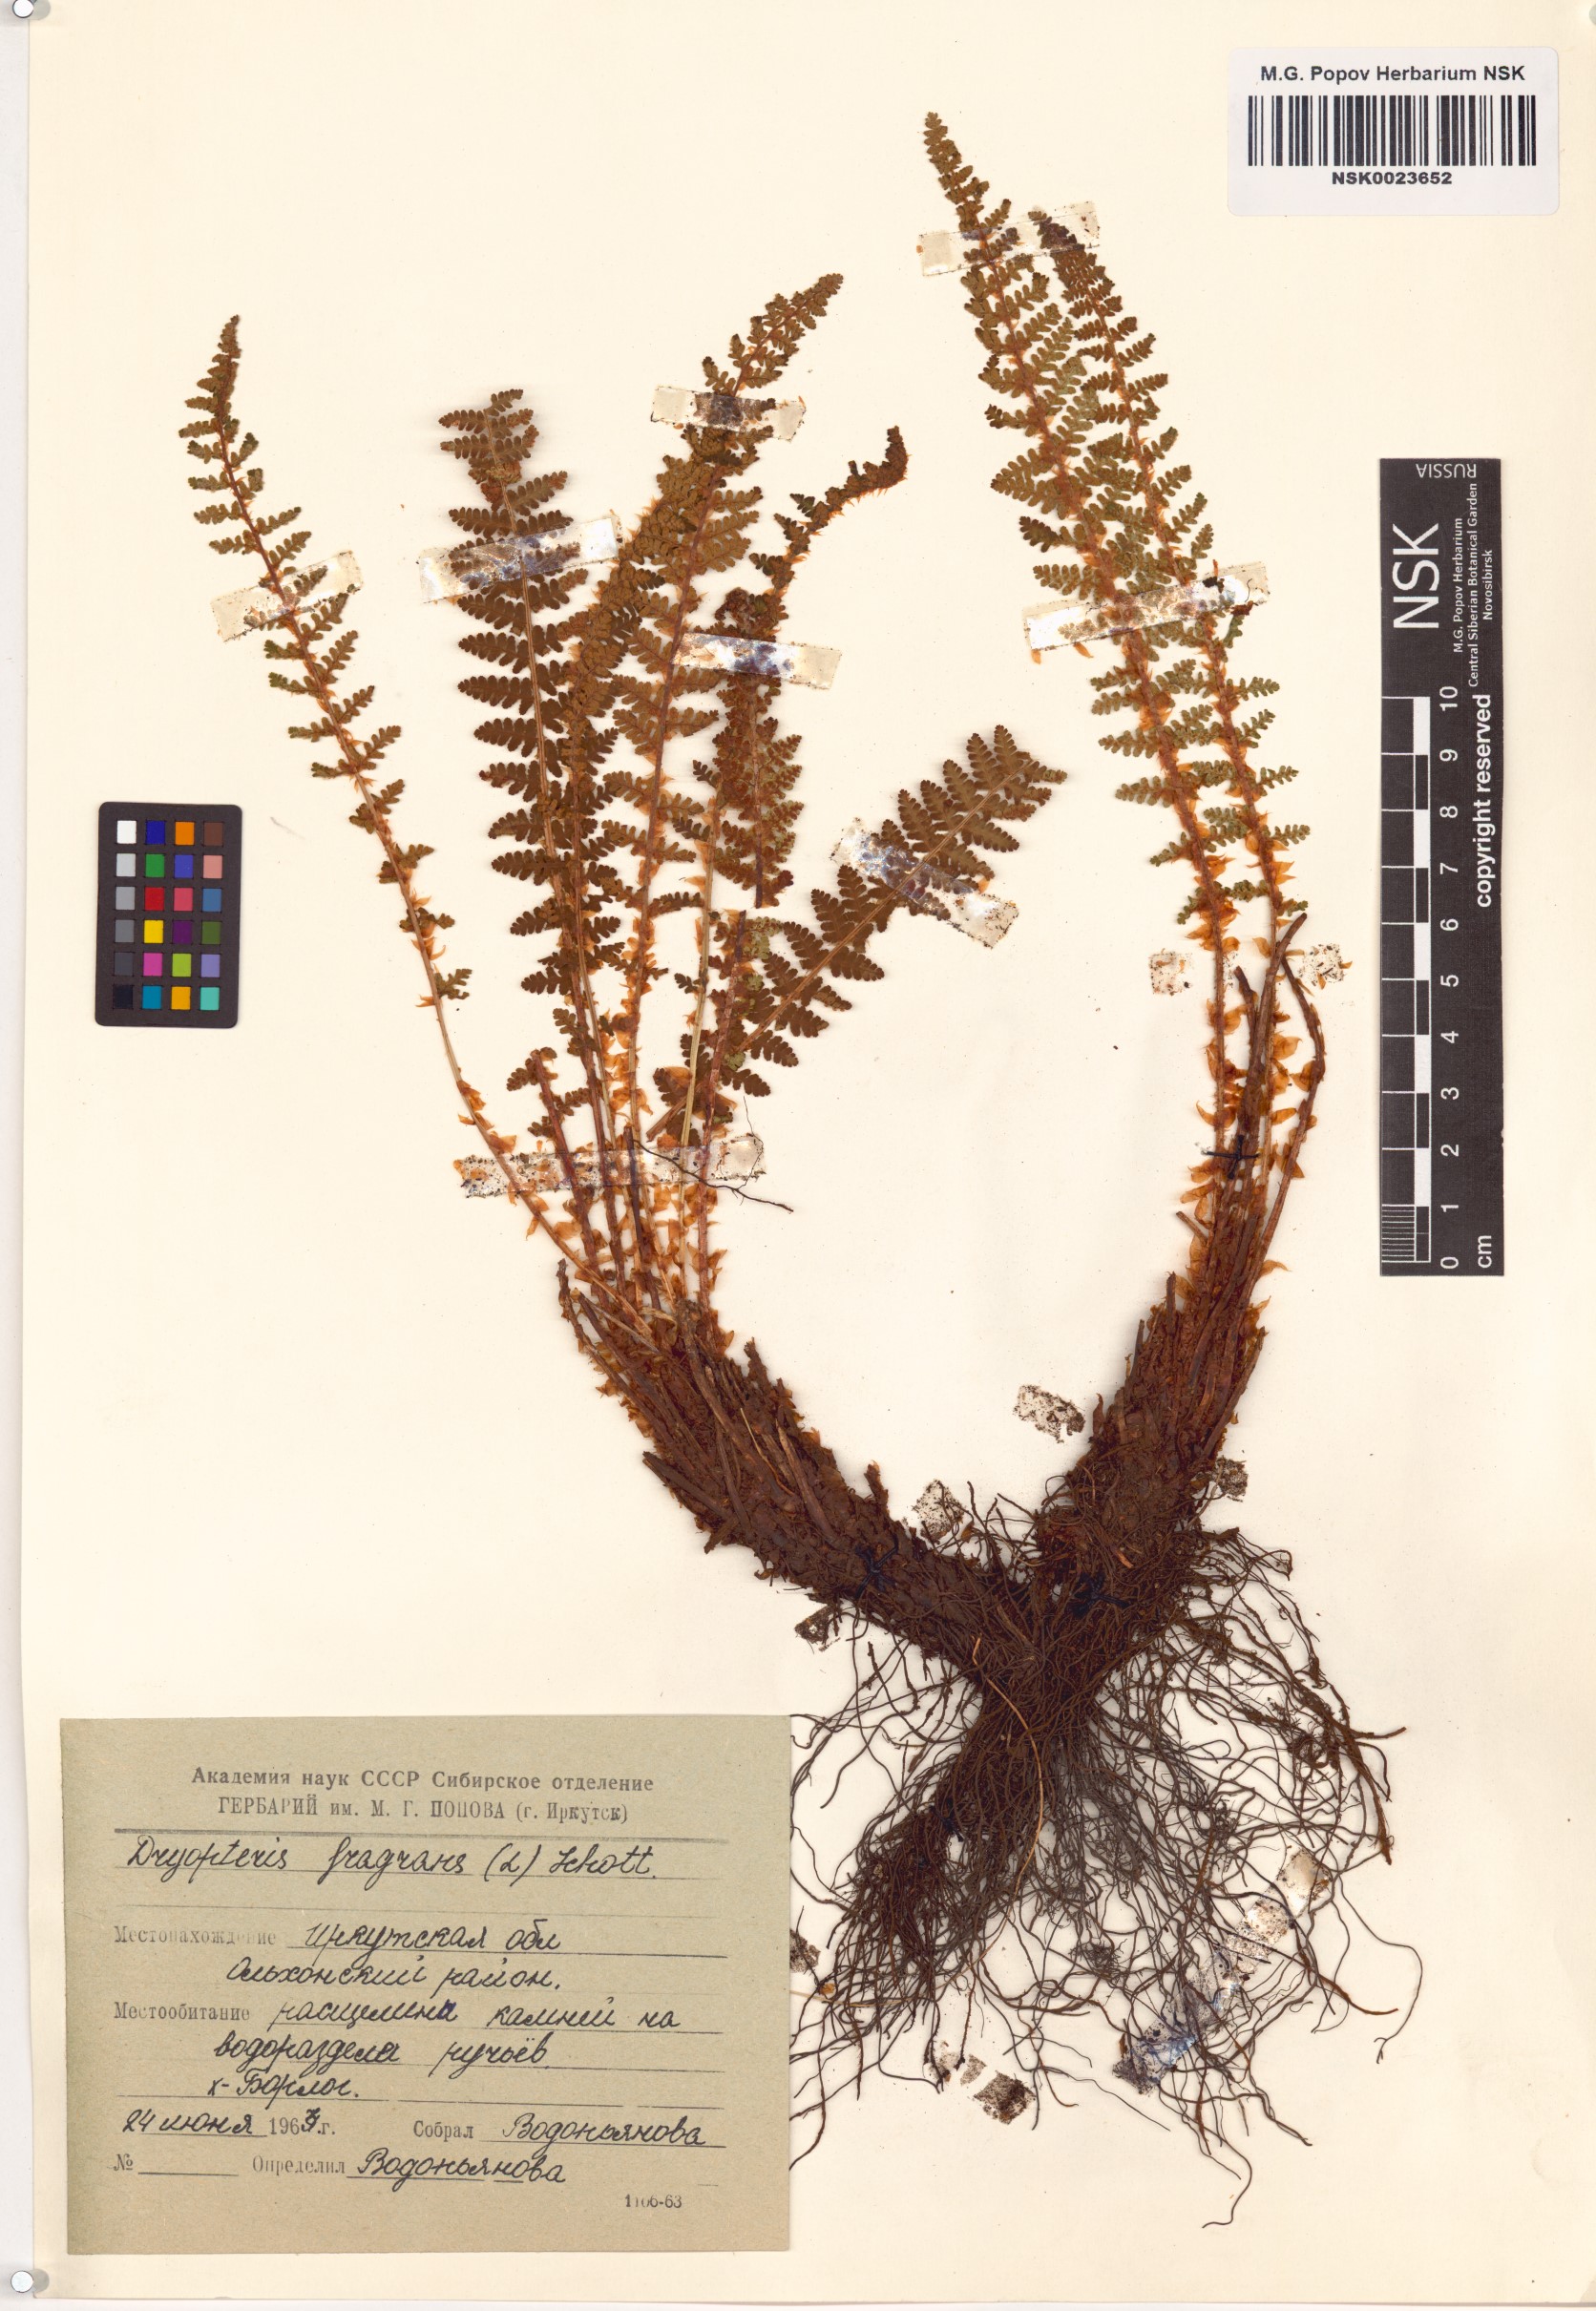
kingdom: Plantae
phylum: Tracheophyta
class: Polypodiopsida
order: Polypodiales
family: Dryopteridaceae
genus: Dryopteris
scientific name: Dryopteris fragrans
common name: Fragrant wood fern
